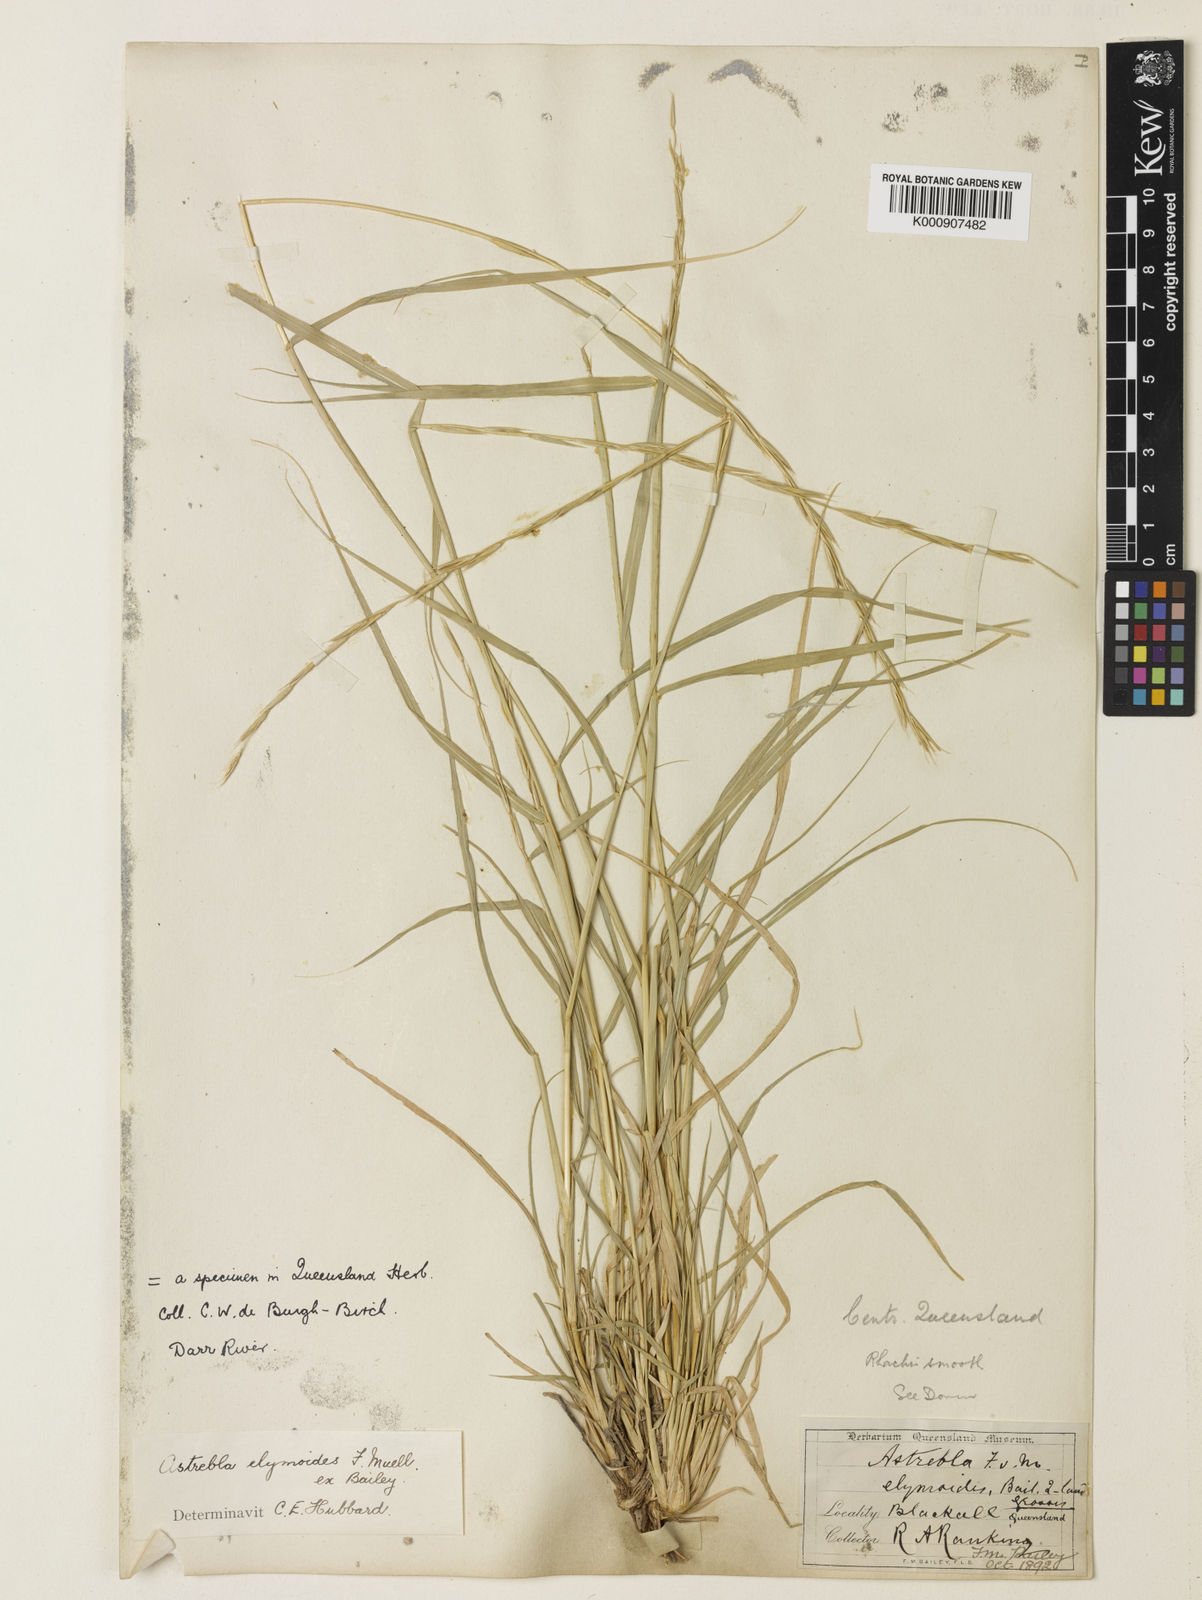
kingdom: Plantae
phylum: Tracheophyta
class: Liliopsida
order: Poales
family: Poaceae
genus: Astrebla
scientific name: Astrebla elymoides
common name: Hoop mitchell grass
